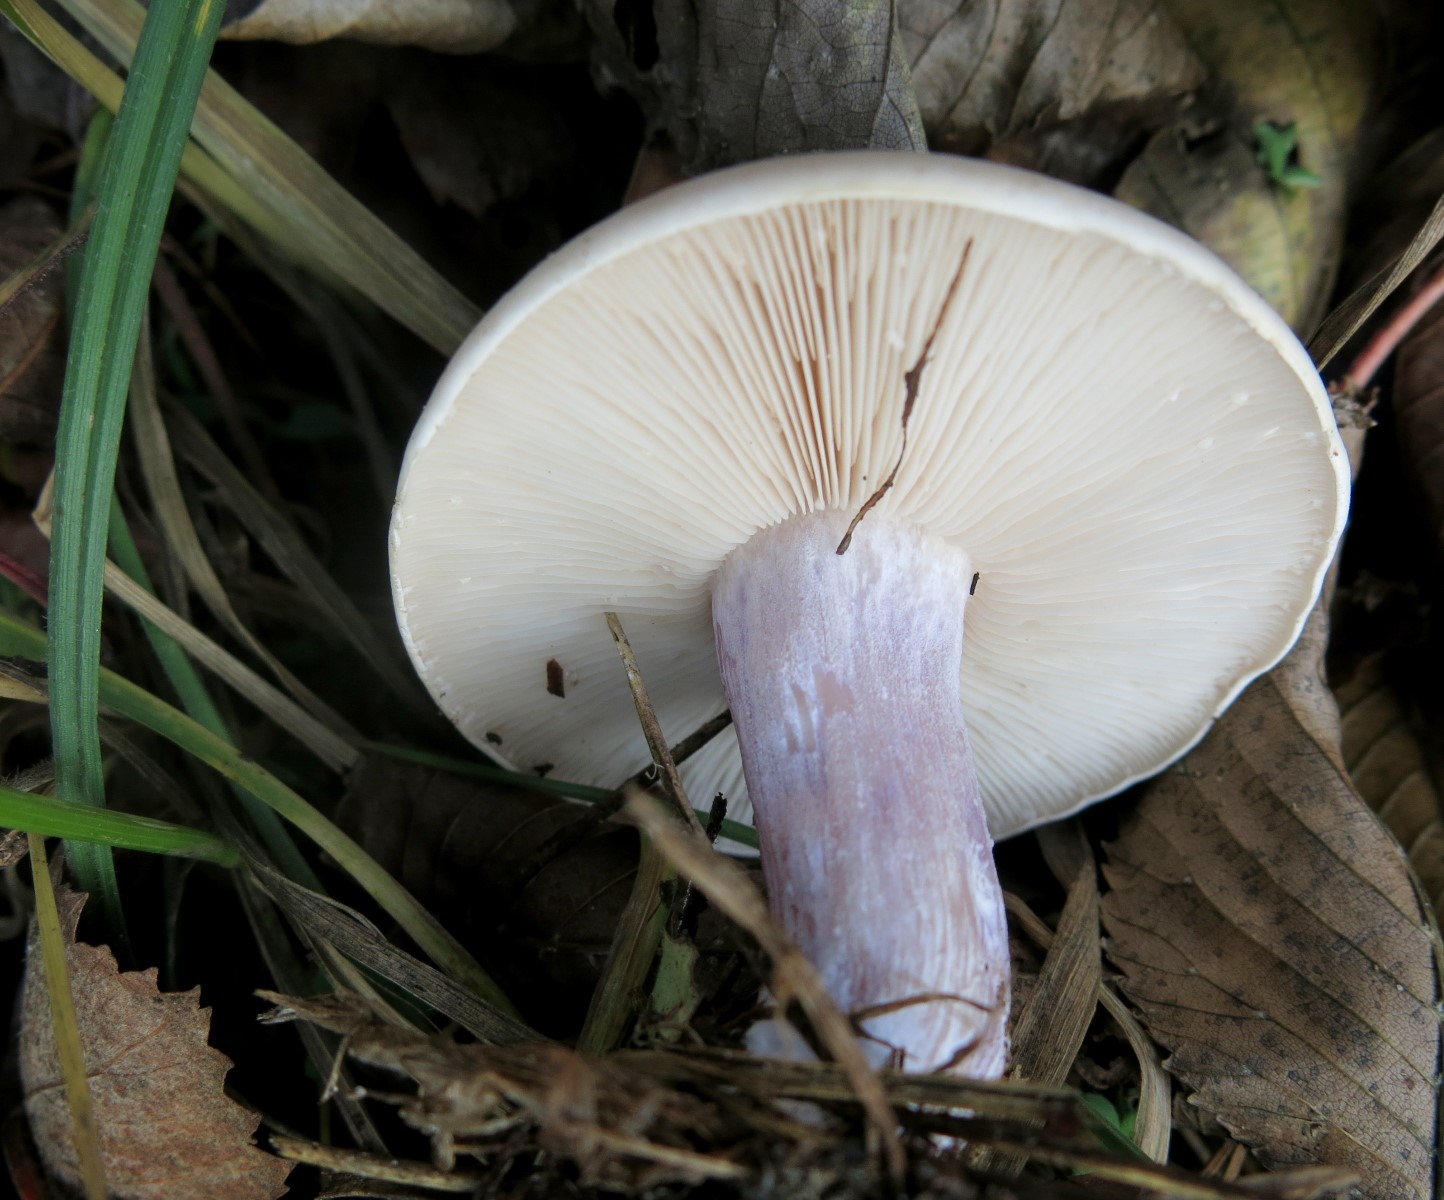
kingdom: Fungi
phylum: Basidiomycota
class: Agaricomycetes
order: Agaricales
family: Tricholomataceae
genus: Lepista
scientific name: Lepista personata
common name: bleg hekseringshat
